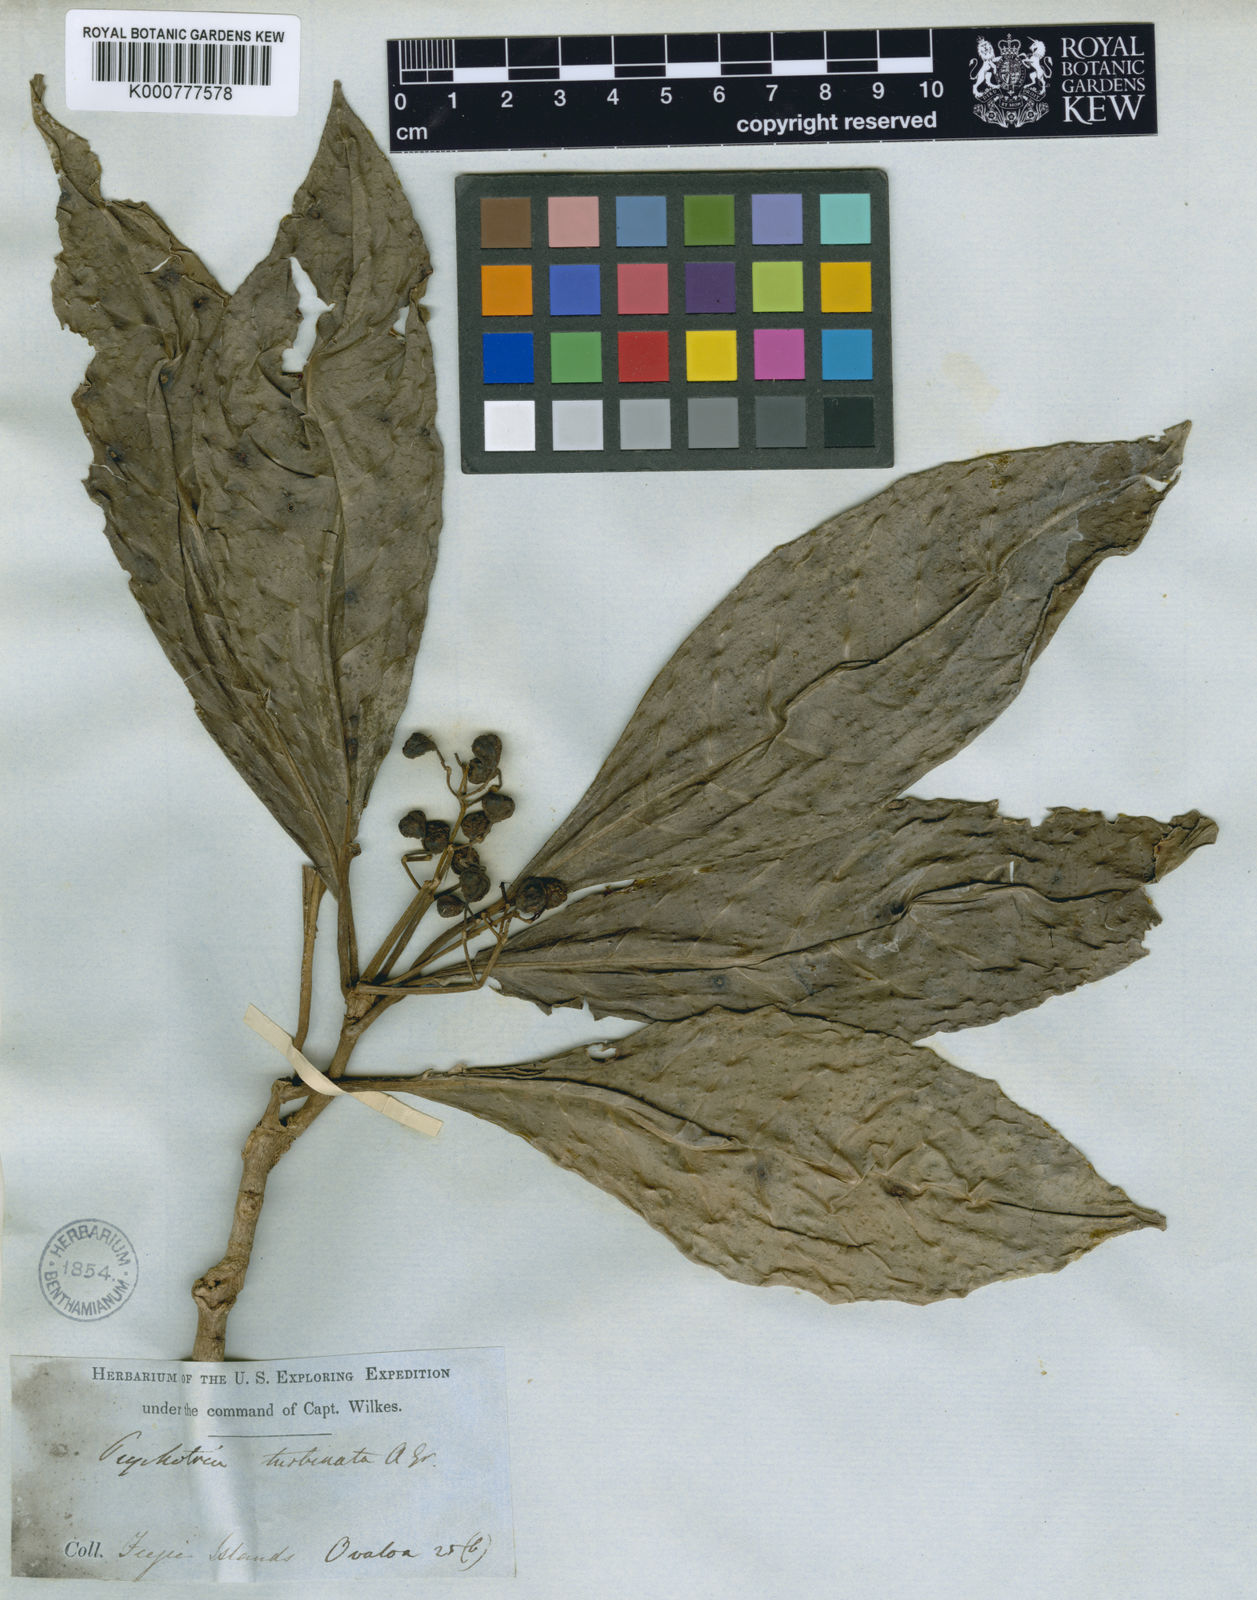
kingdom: Plantae
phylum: Tracheophyta
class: Magnoliopsida
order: Gentianales
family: Rubiaceae
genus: Psychotria
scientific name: Psychotria turbinata
